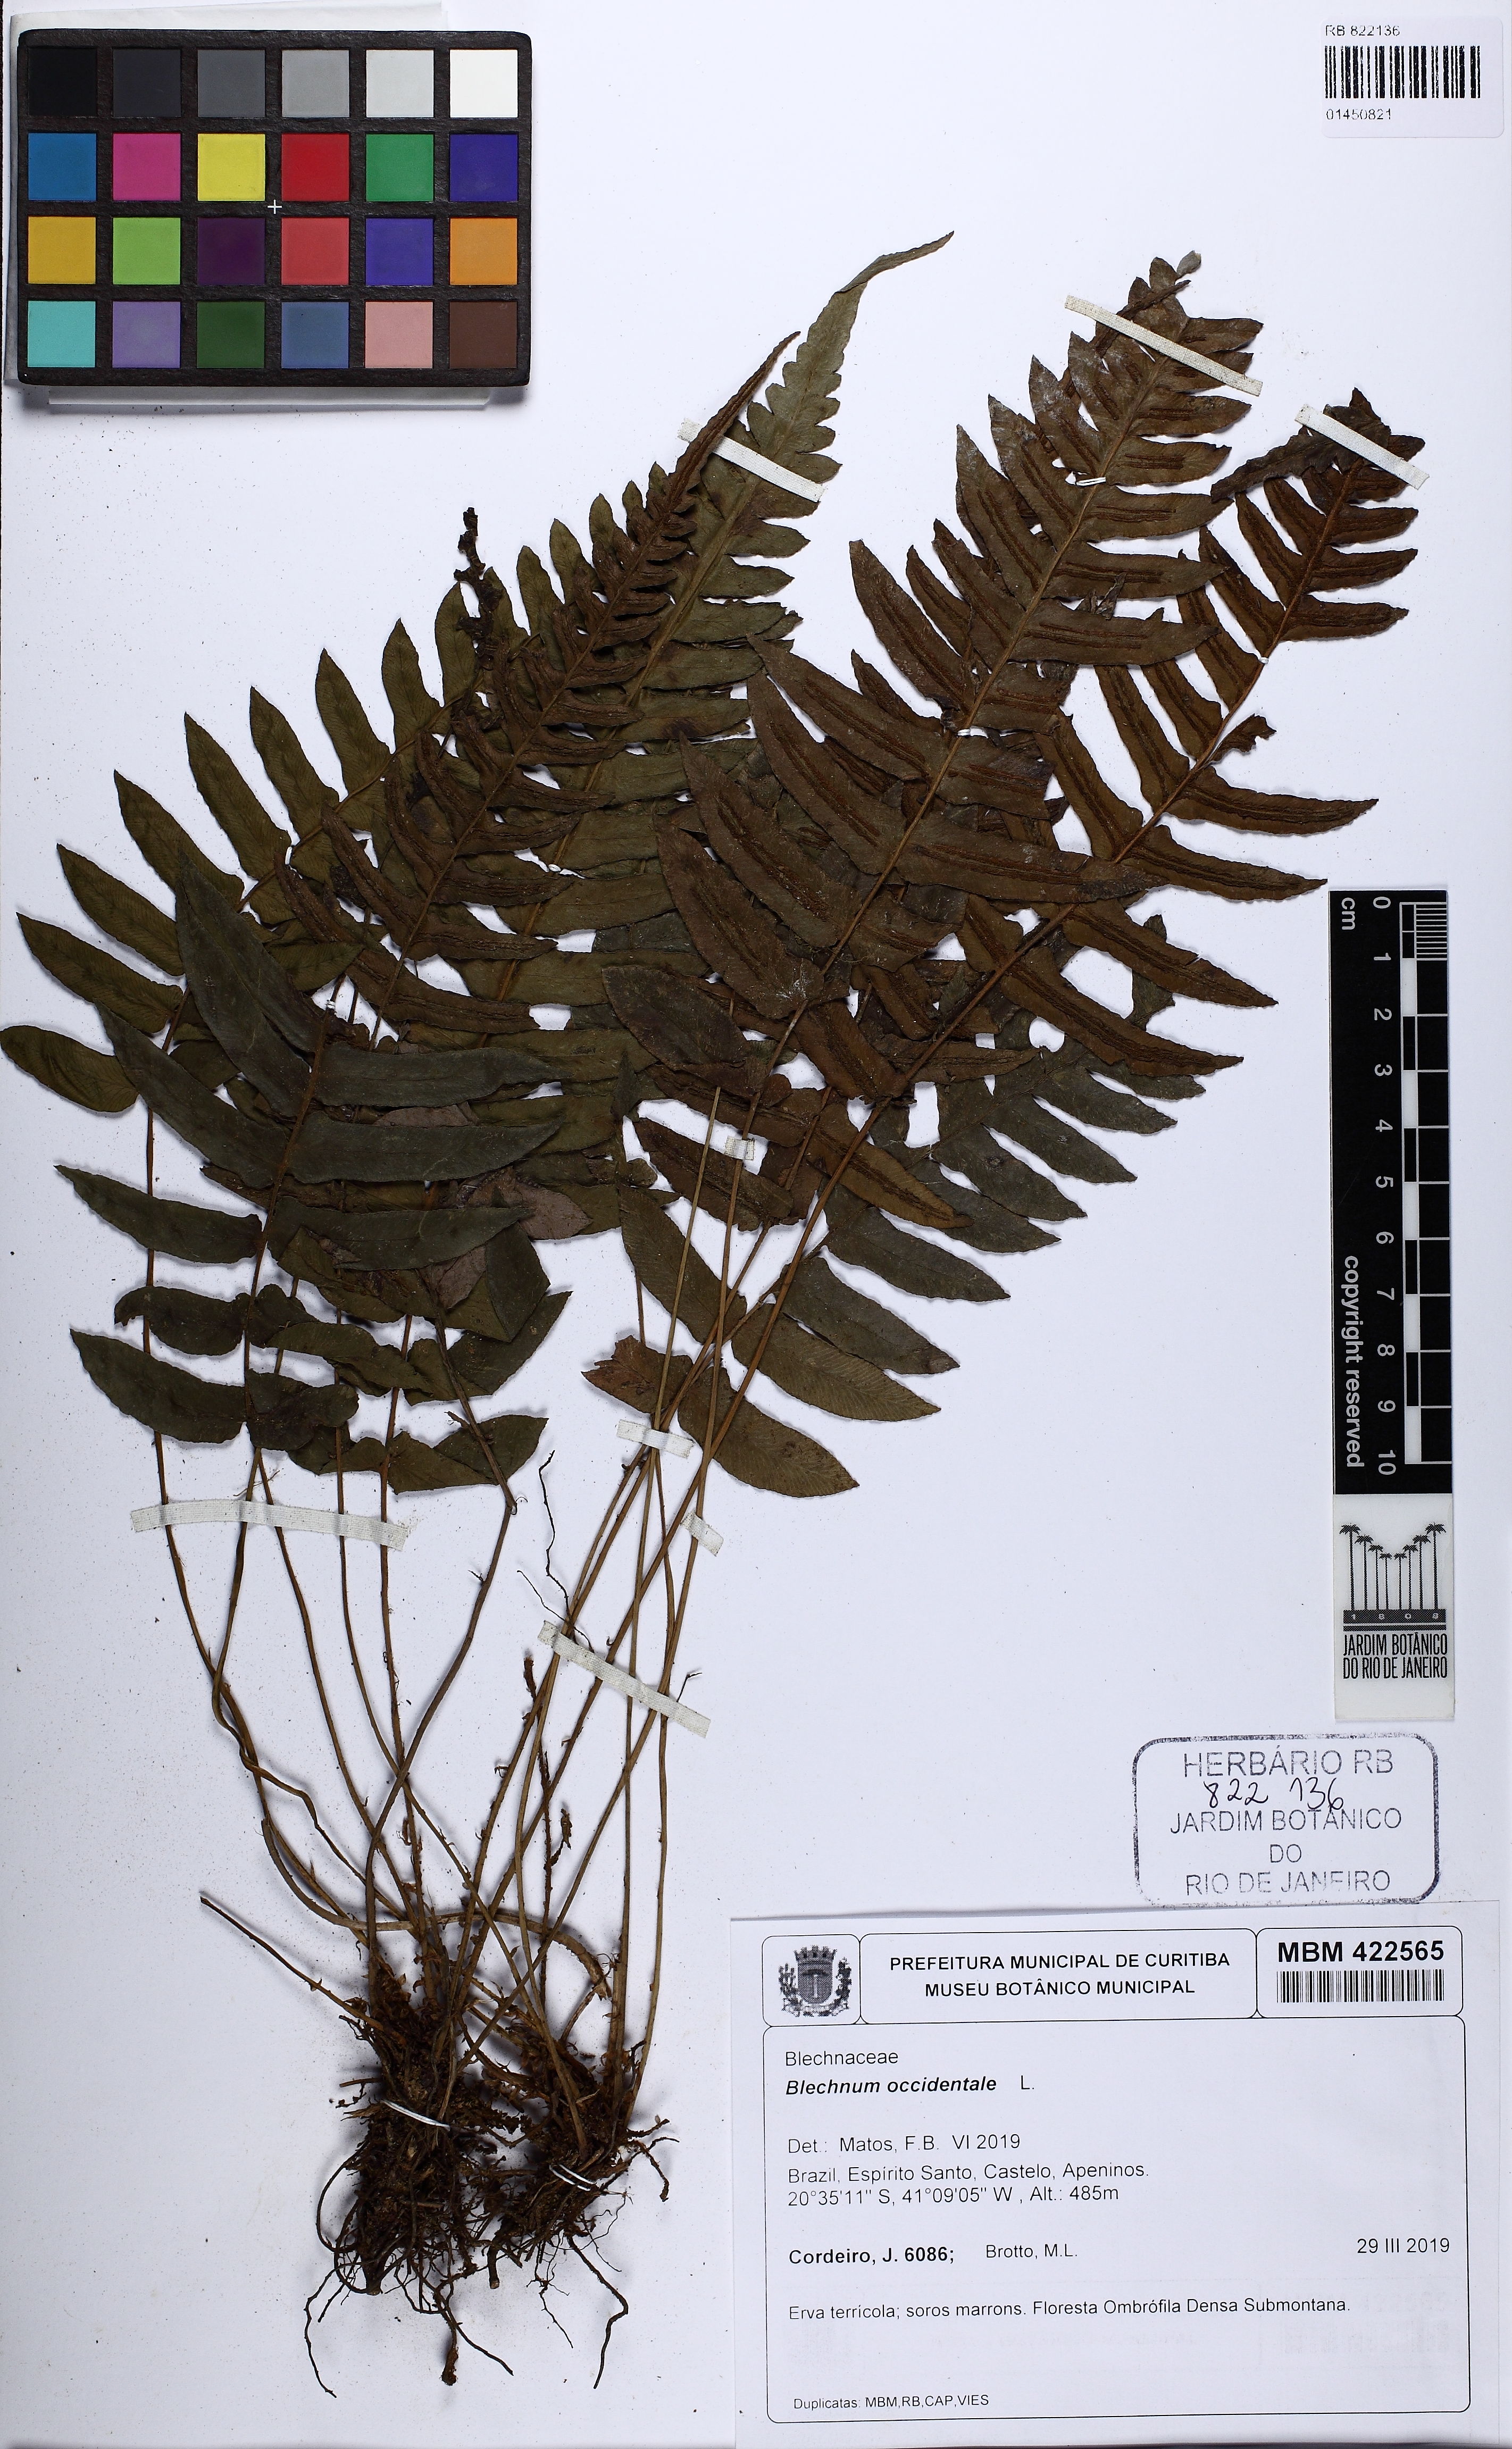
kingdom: Plantae
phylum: Tracheophyta
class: Polypodiopsida
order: Polypodiales
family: Blechnaceae
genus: Blechnum
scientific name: Blechnum occidentale
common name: Hammock fern
